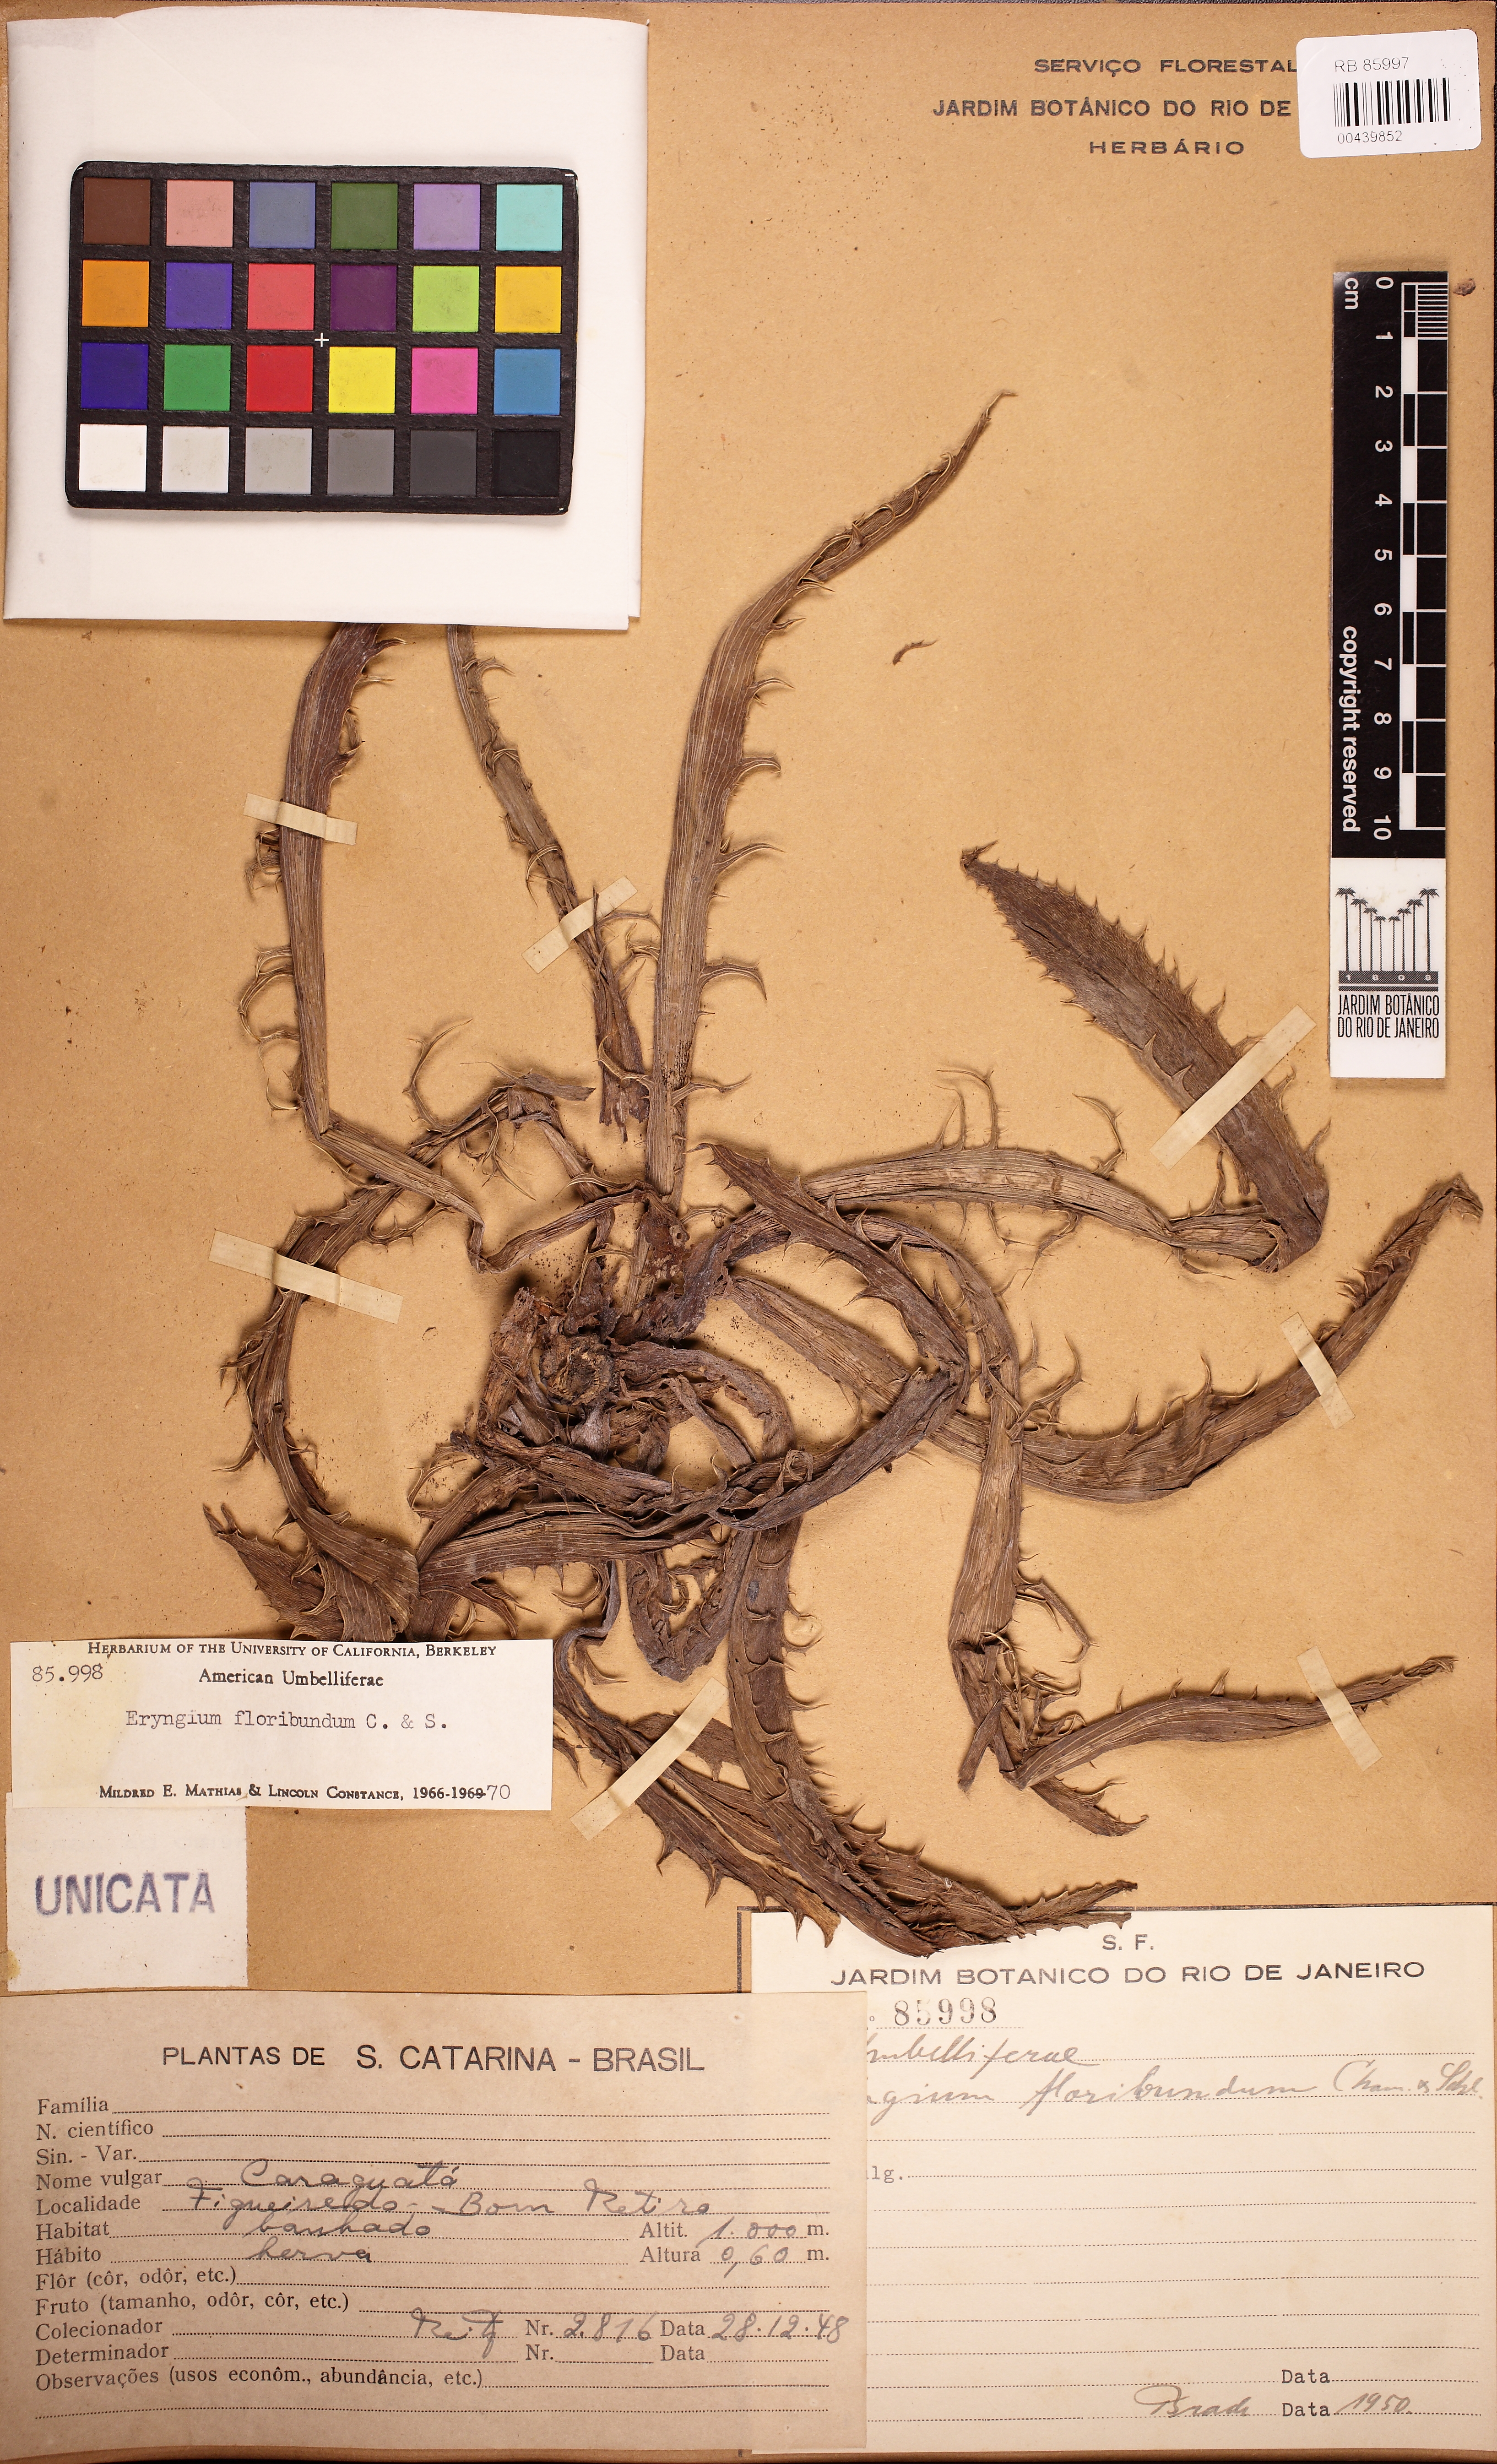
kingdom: Plantae
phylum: Tracheophyta
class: Magnoliopsida
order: Apiales
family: Apiaceae
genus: Eryngium
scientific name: Eryngium floribundum
